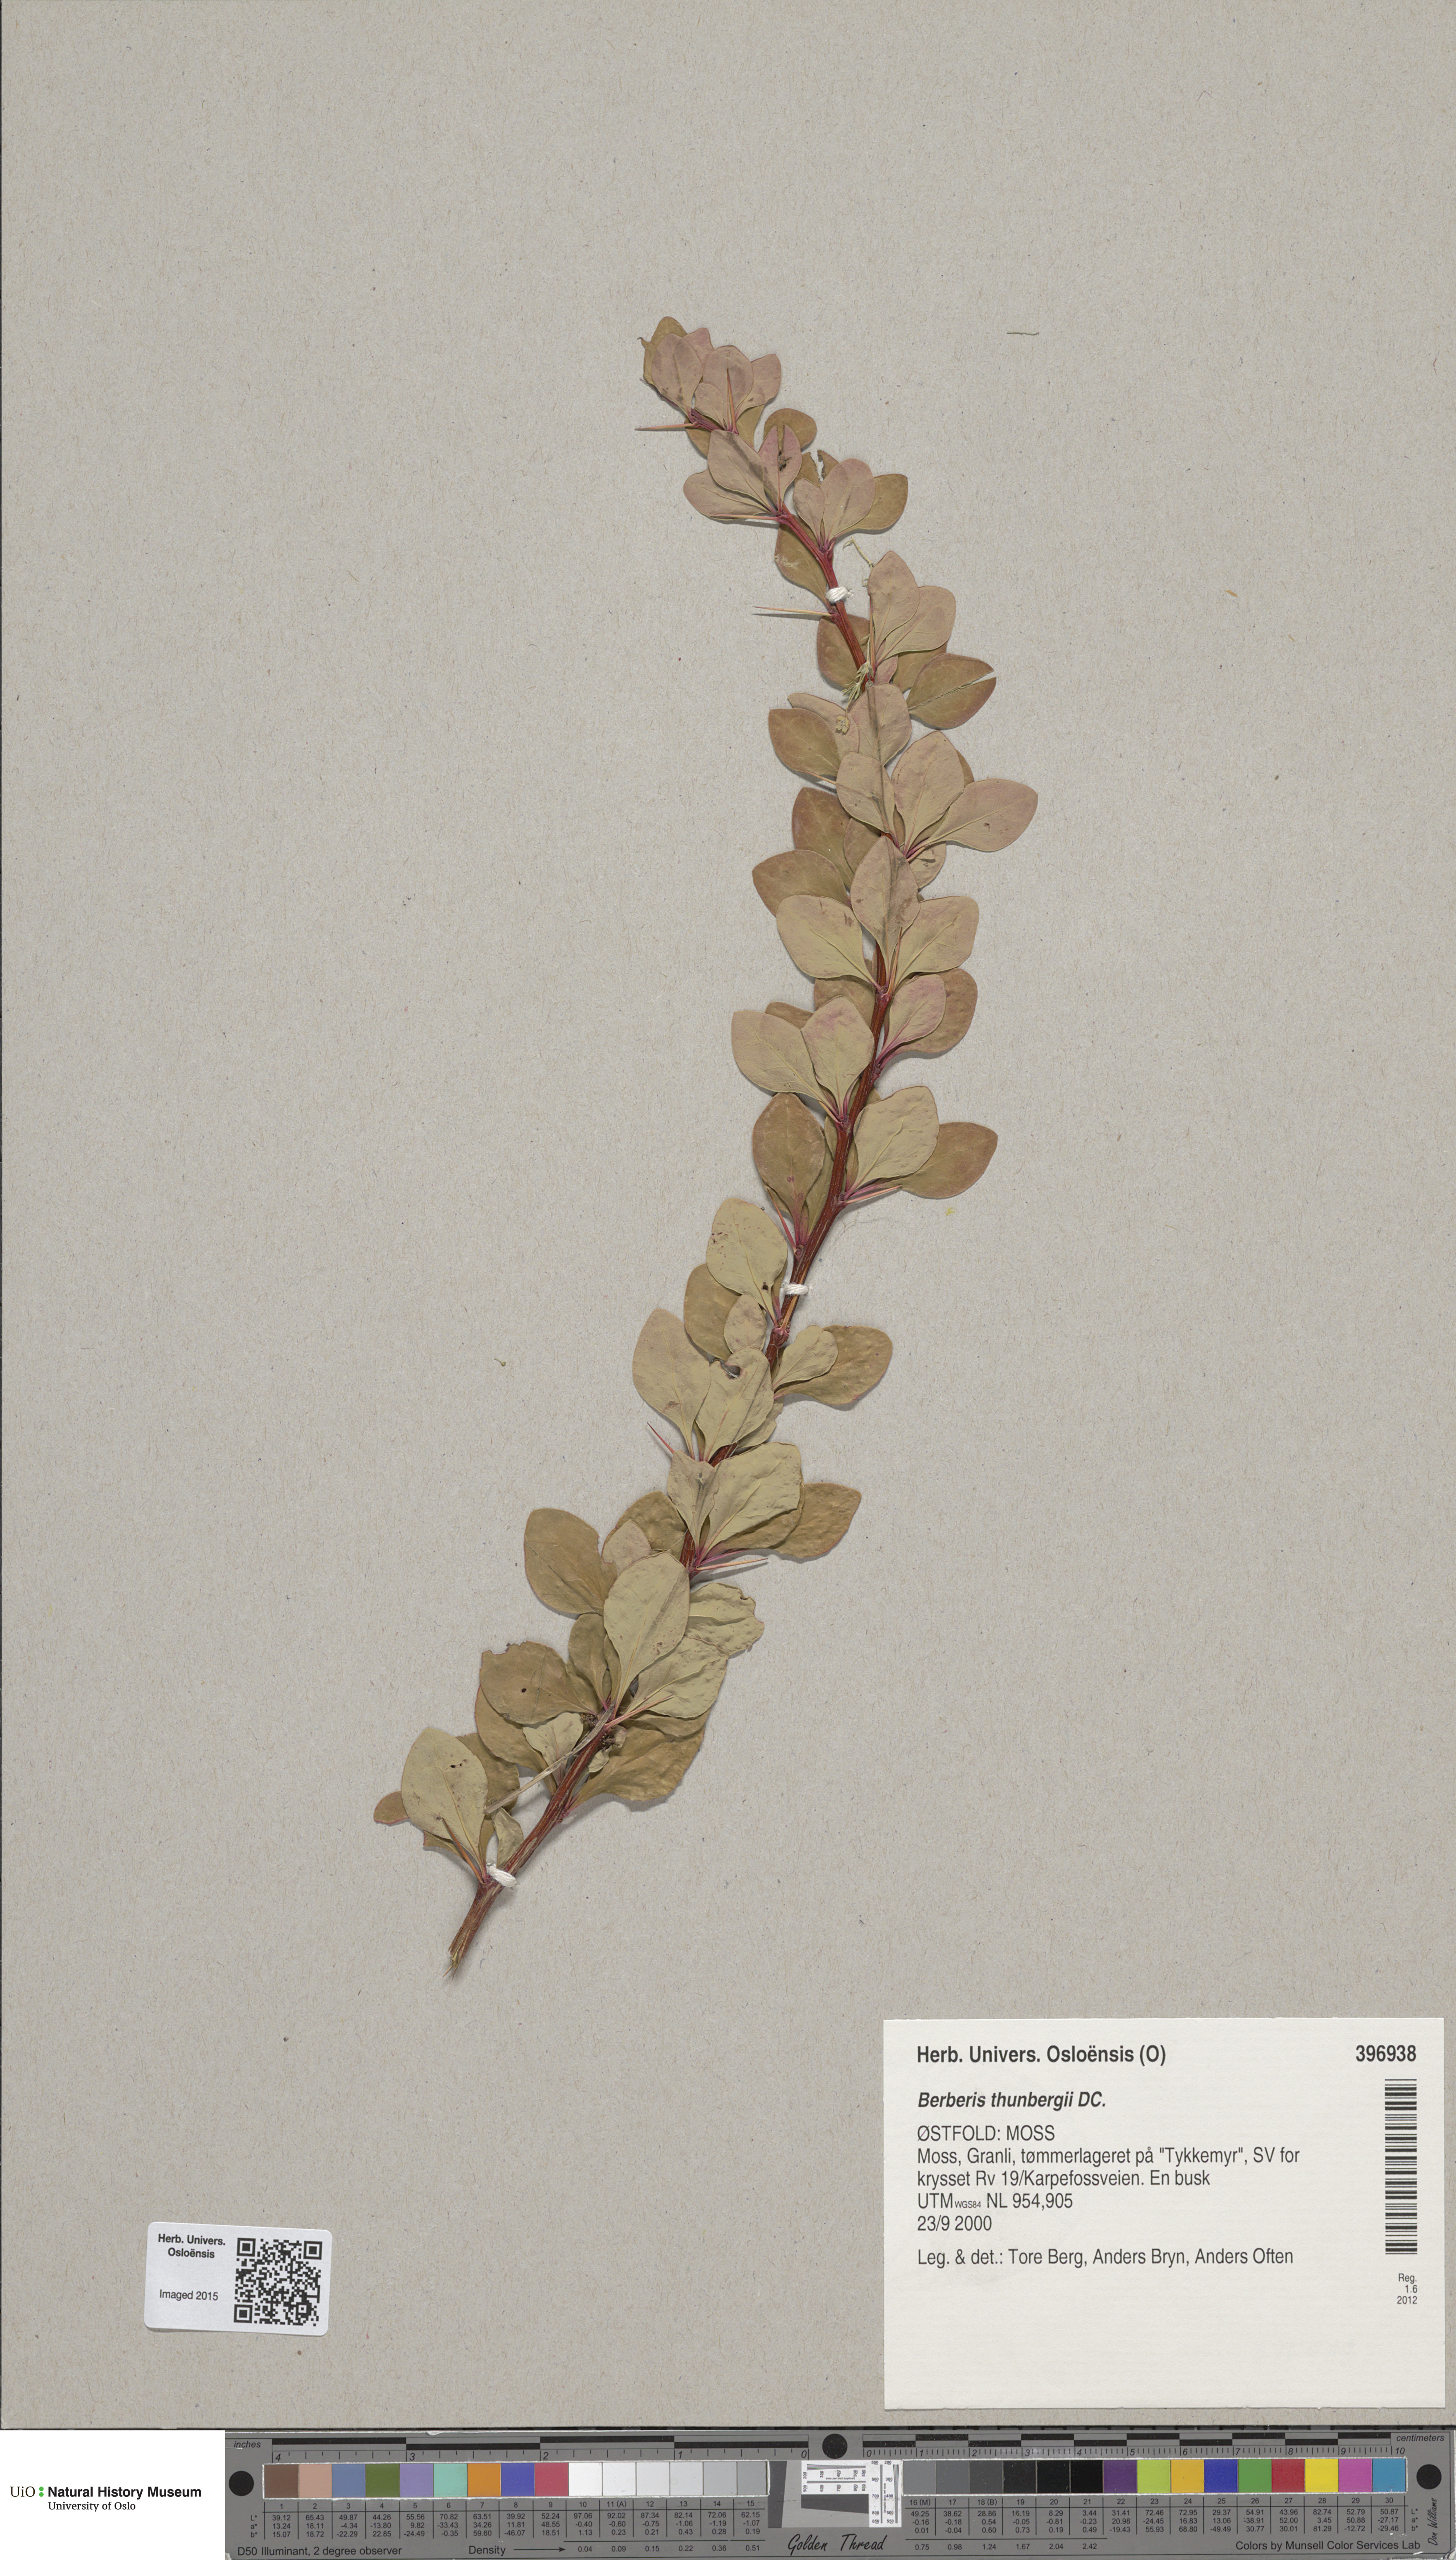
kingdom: Plantae
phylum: Tracheophyta
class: Magnoliopsida
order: Ranunculales
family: Berberidaceae
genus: Berberis
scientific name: Berberis thunbergii
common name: Japanese barberry
